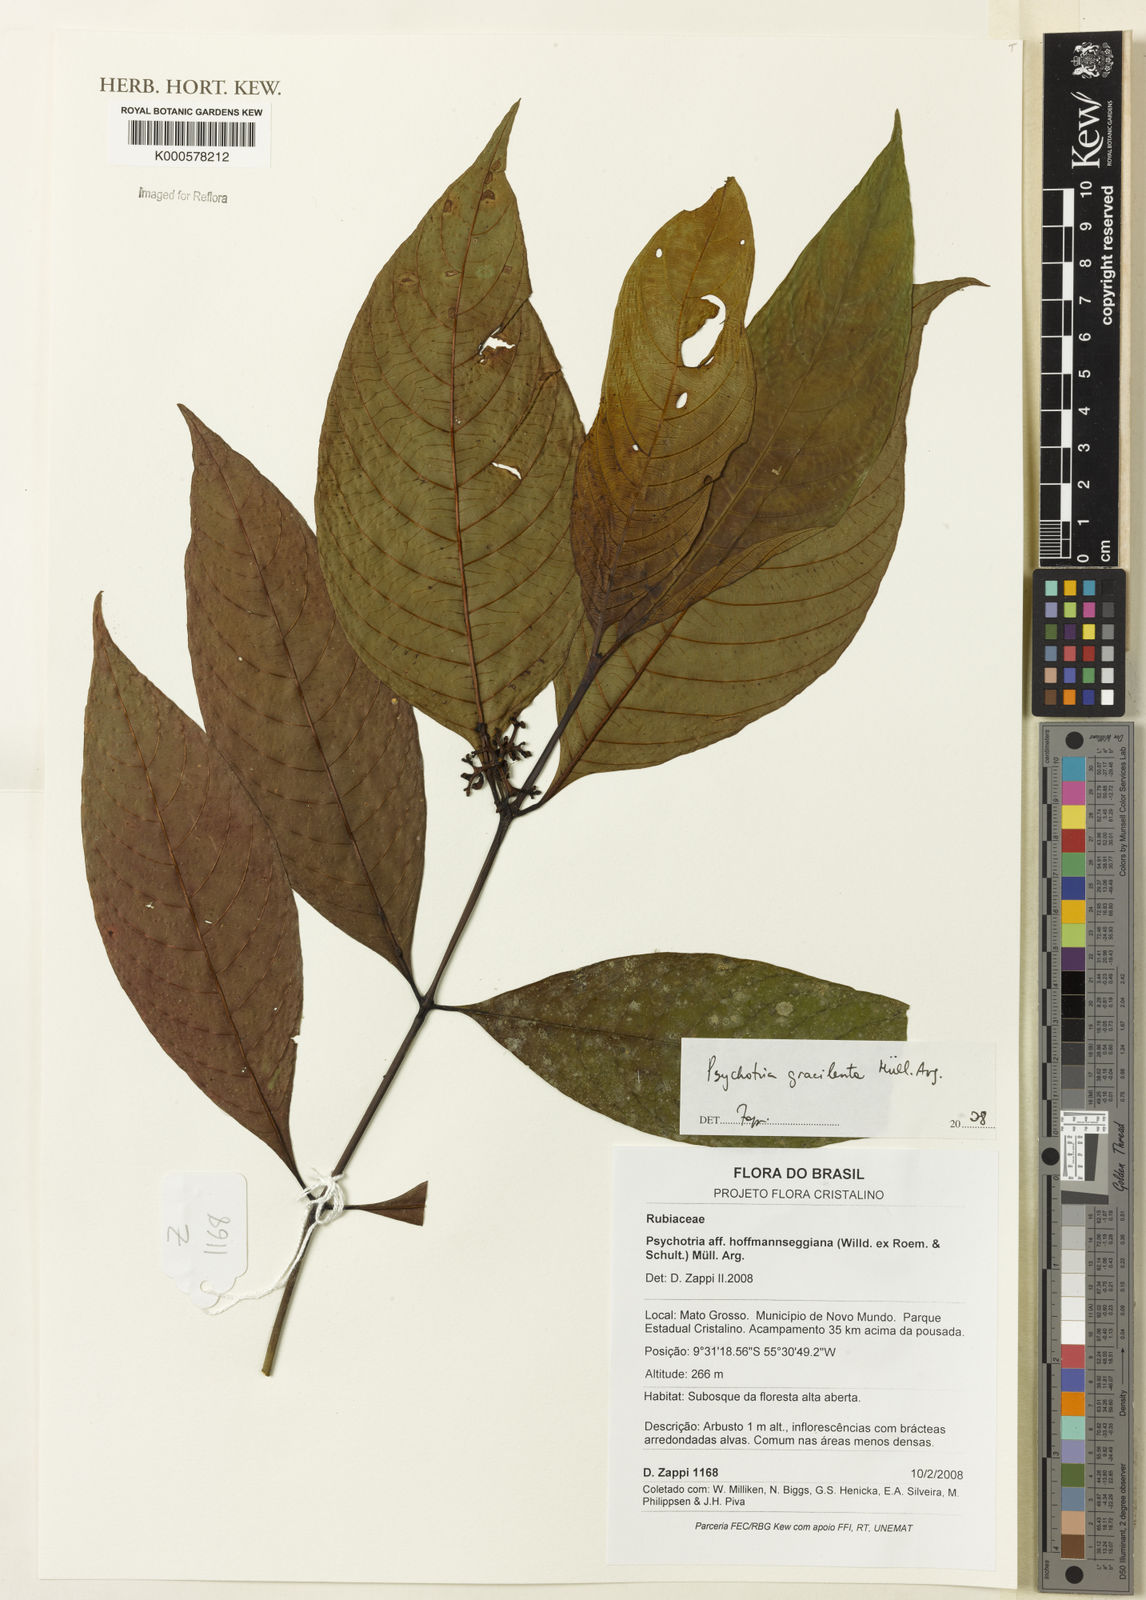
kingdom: Plantae
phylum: Tracheophyta
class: Magnoliopsida
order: Gentianales
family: Rubiaceae
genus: Psychotria
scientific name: Psychotria
